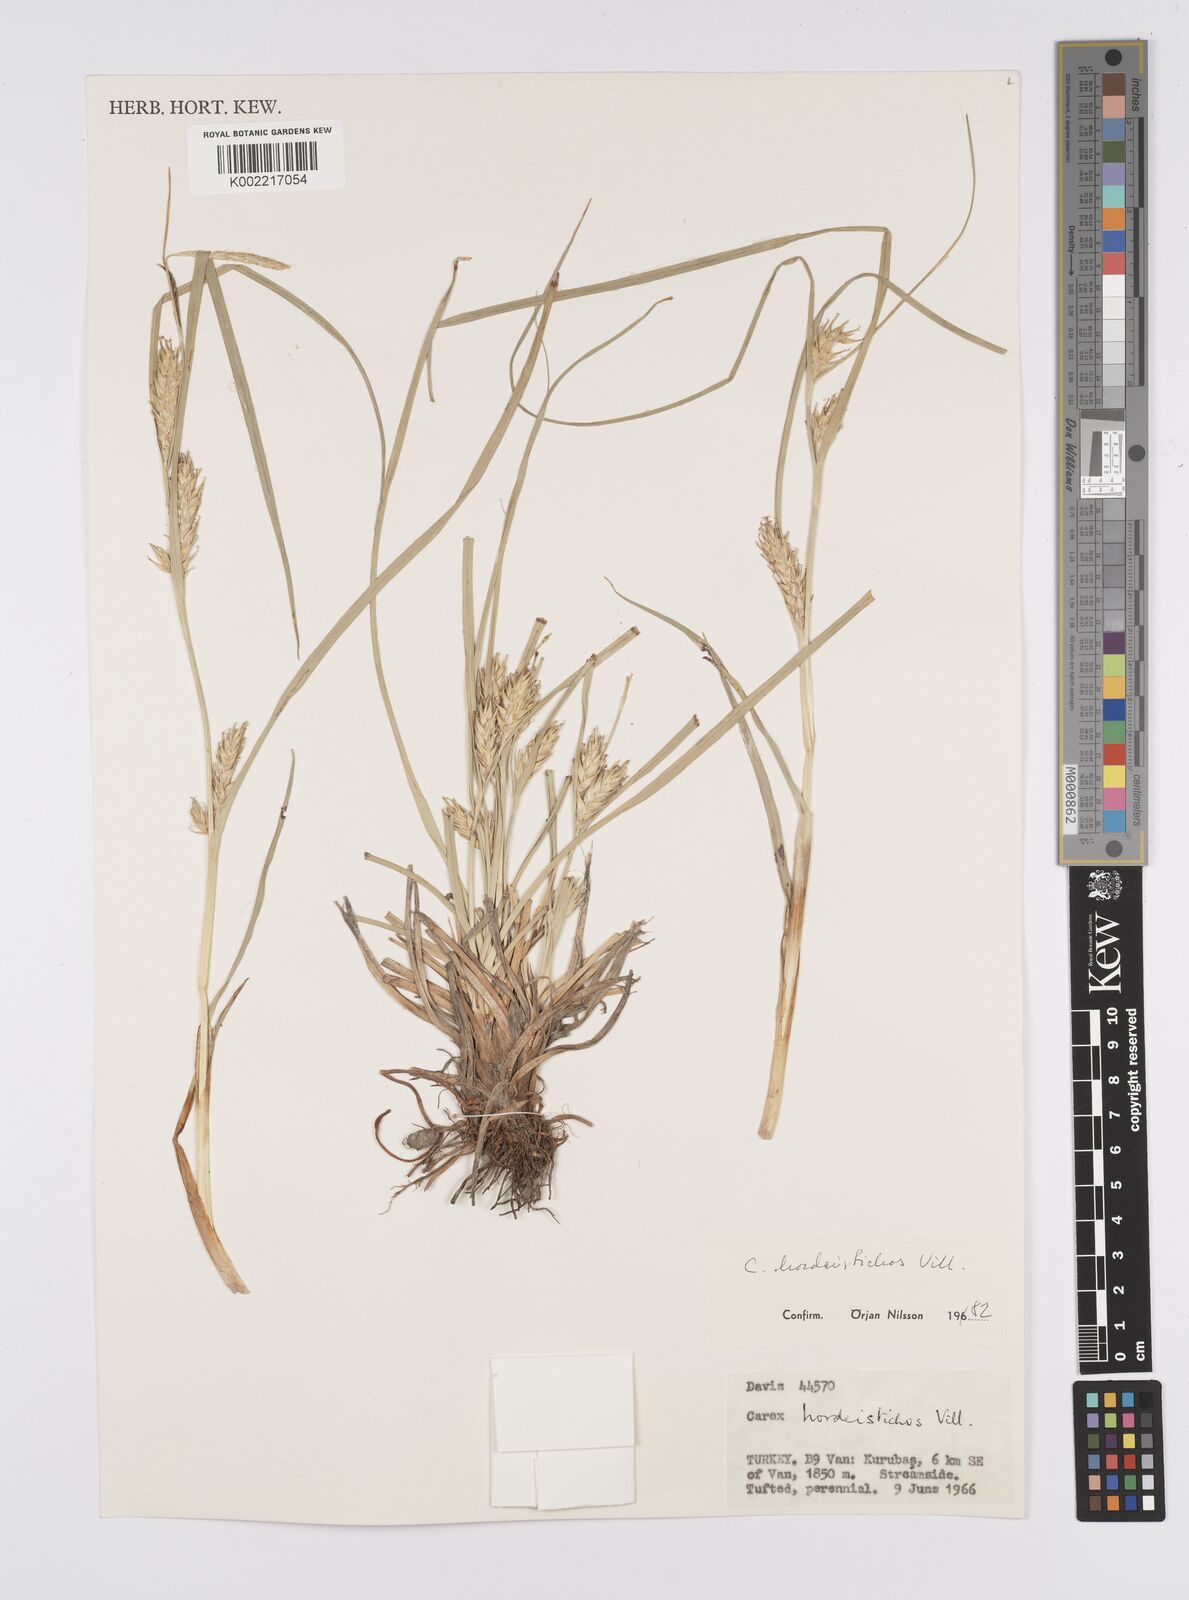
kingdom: Plantae
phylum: Tracheophyta
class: Liliopsida
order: Poales
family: Cyperaceae
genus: Carex
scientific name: Carex hordeistichos
